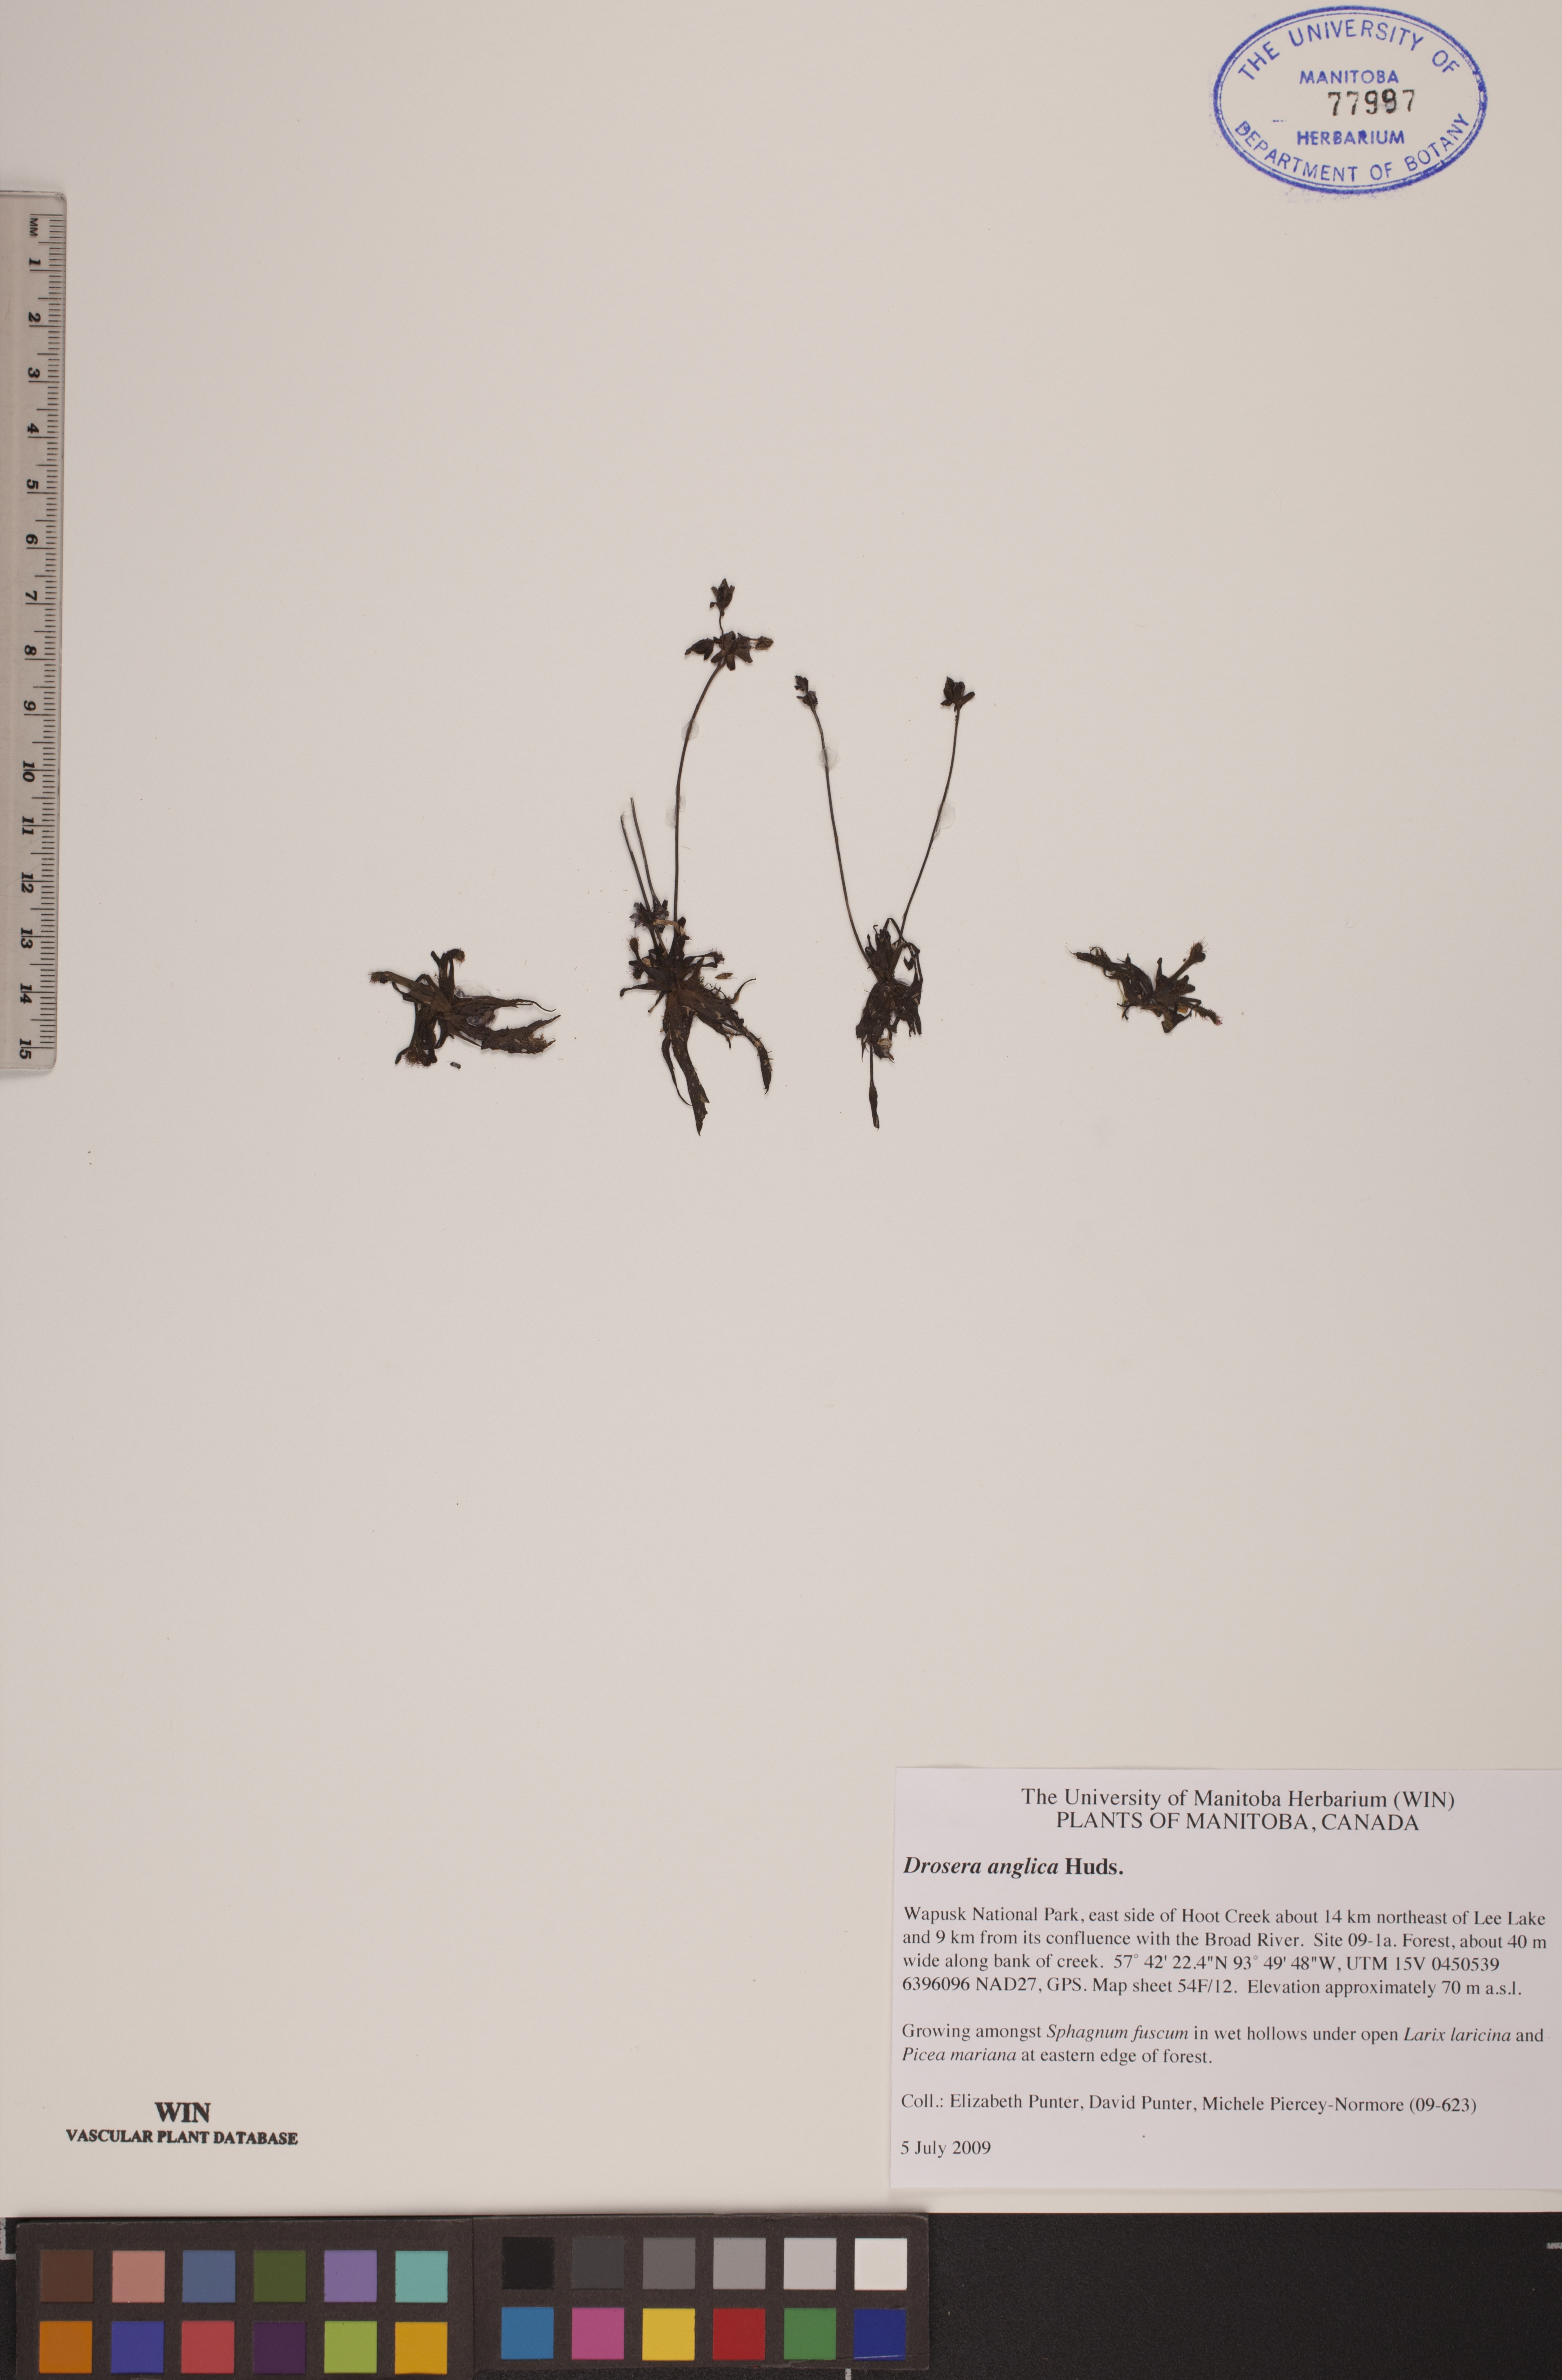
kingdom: Plantae
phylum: Tracheophyta
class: Magnoliopsida
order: Caryophyllales
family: Droseraceae
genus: Drosera
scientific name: Drosera anglica
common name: Great sundew
